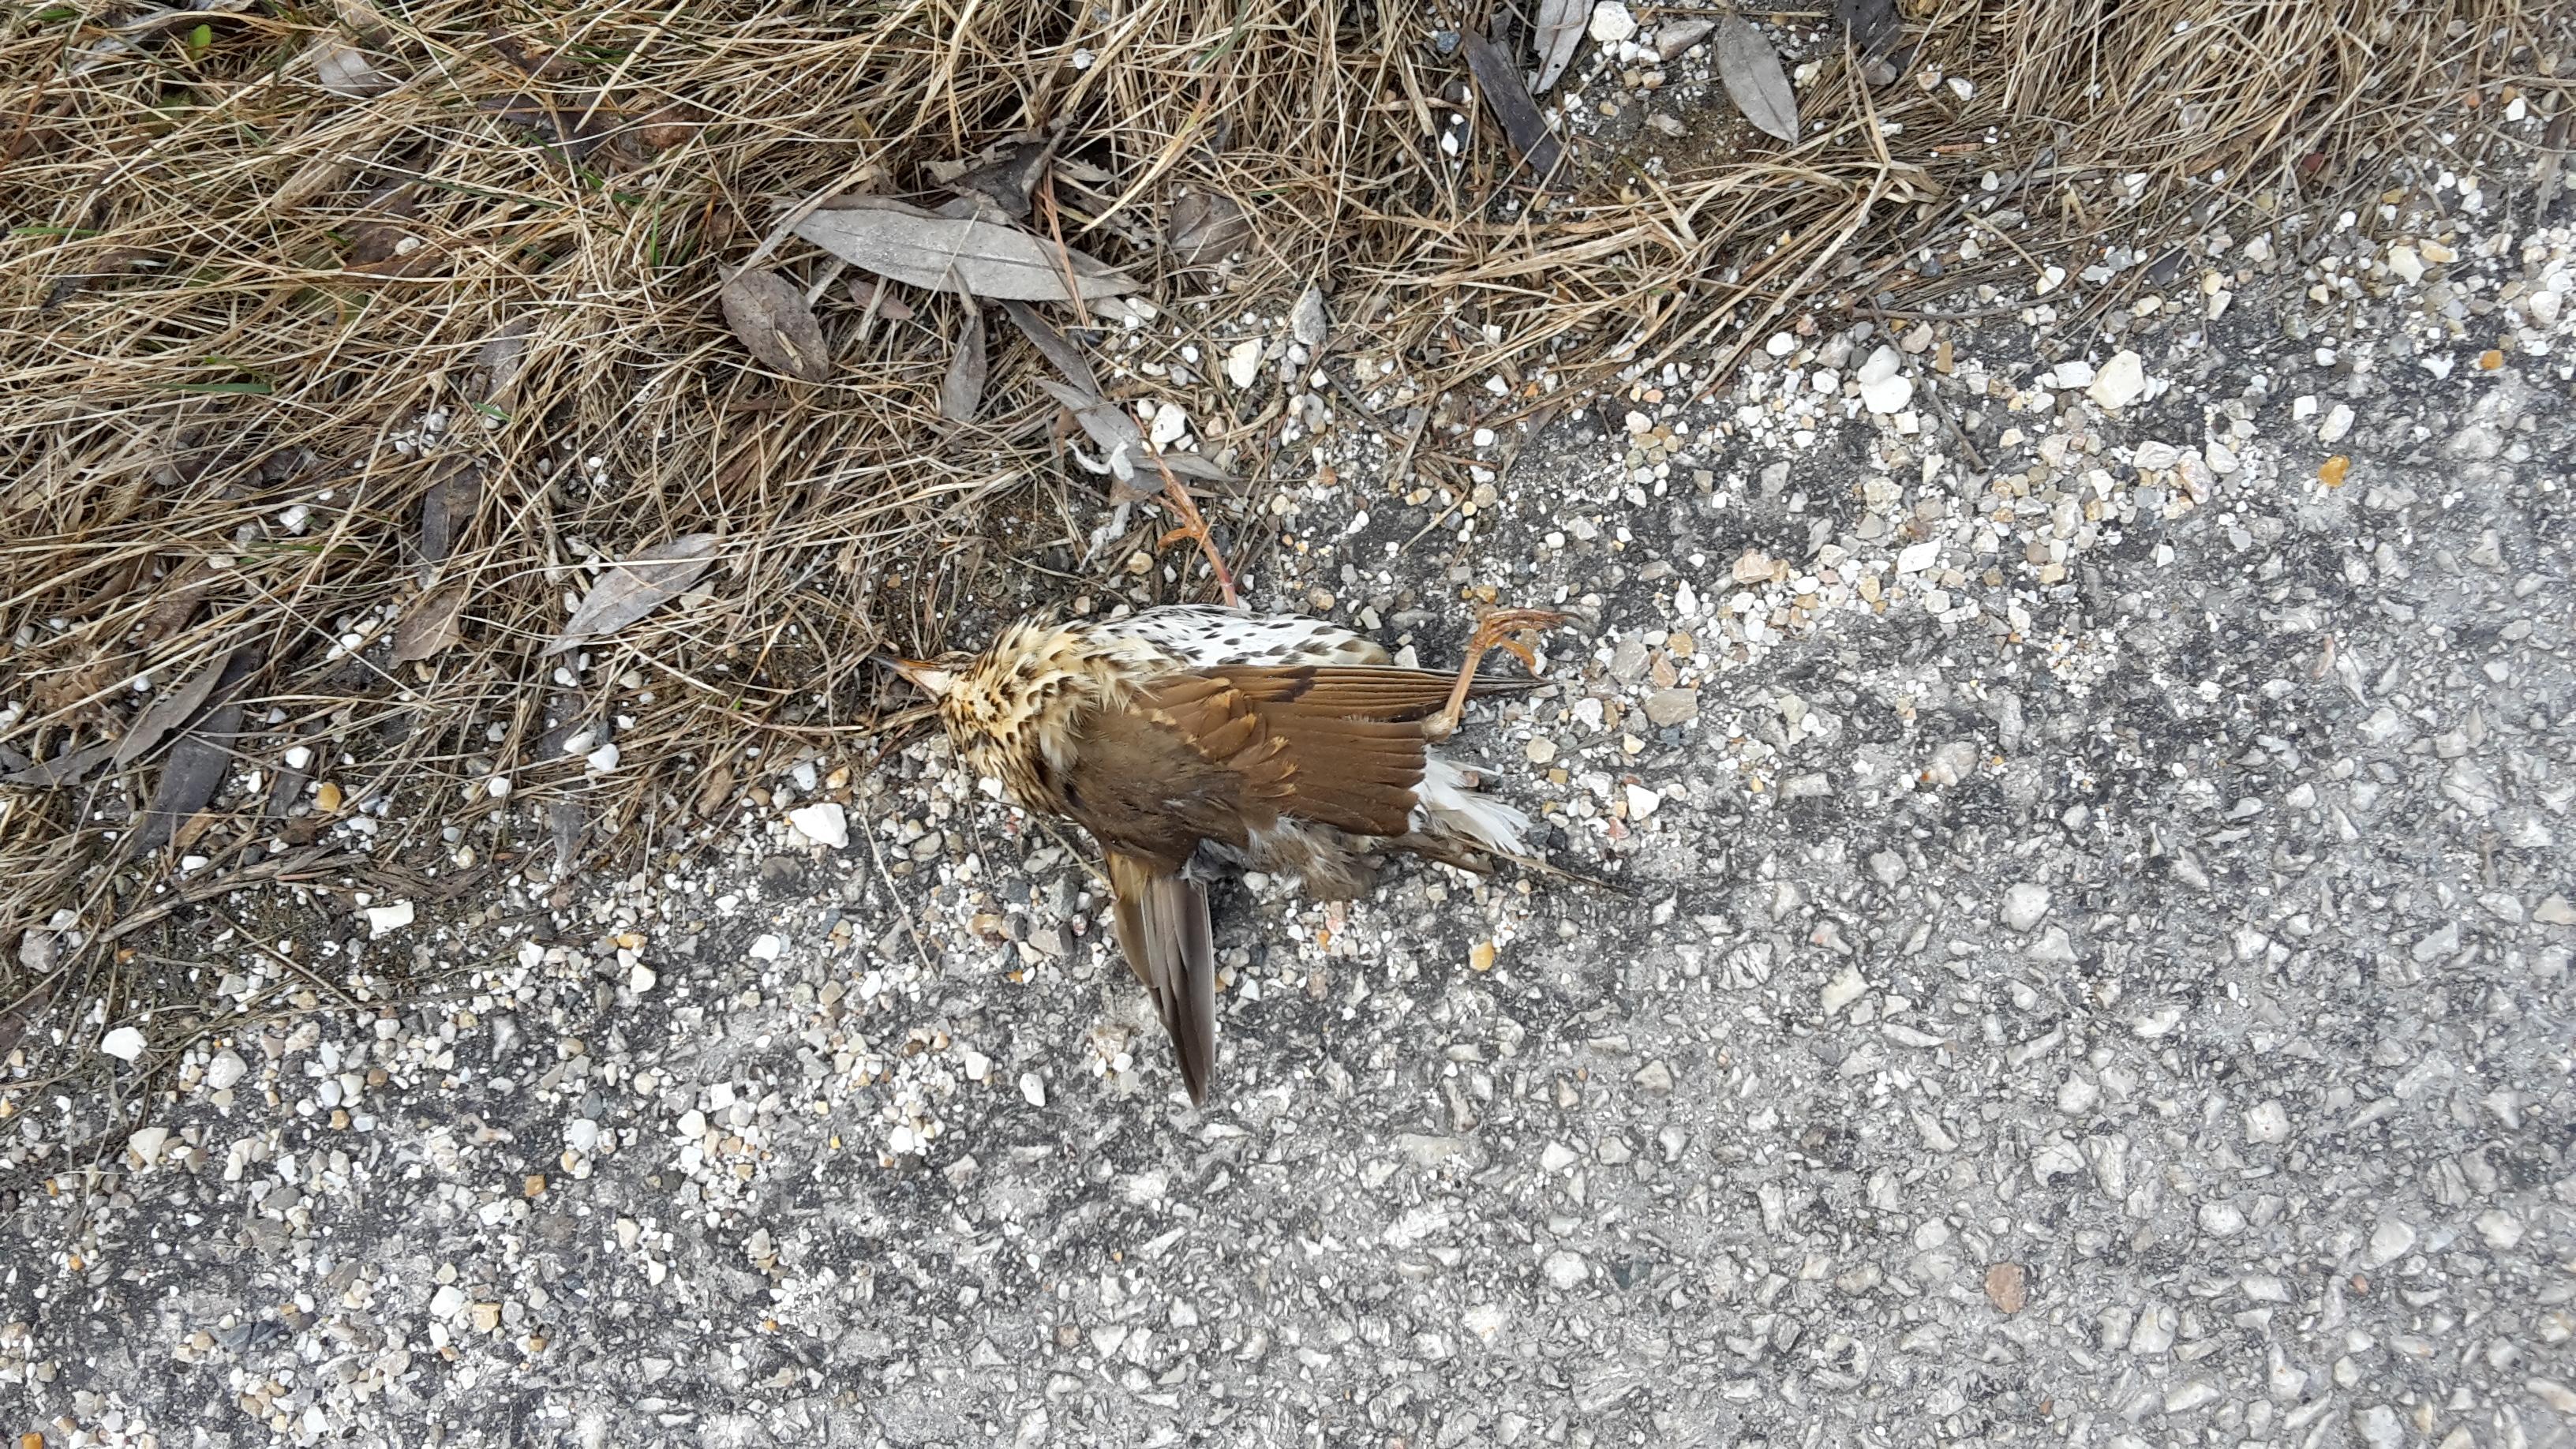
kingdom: Animalia
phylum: Chordata
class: Aves
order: Passeriformes
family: Turdidae
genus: Turdus
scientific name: Turdus philomelos
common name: Song thrush
